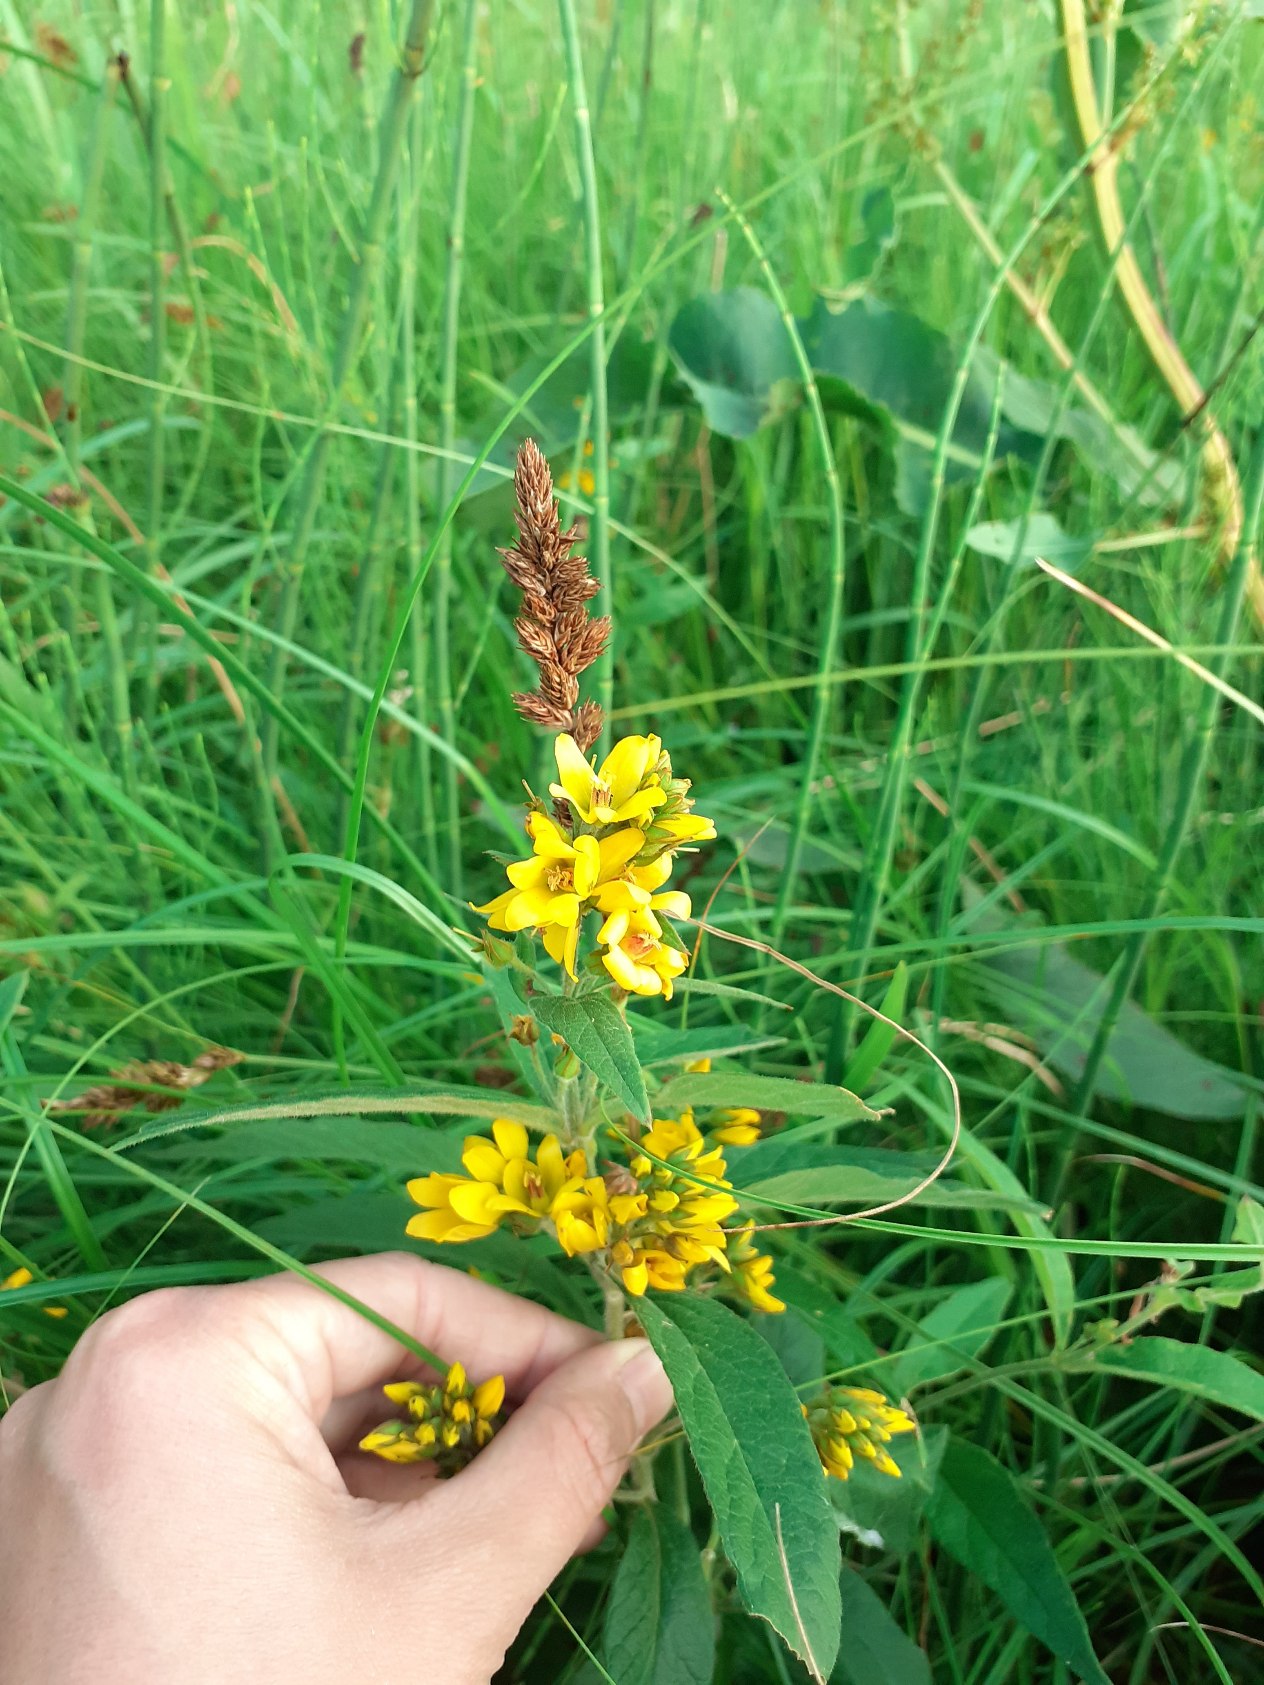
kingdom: Plantae
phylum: Tracheophyta
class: Magnoliopsida
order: Ericales
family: Primulaceae
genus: Lysimachia
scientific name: Lysimachia vulgaris
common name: Almindelig fredløs
